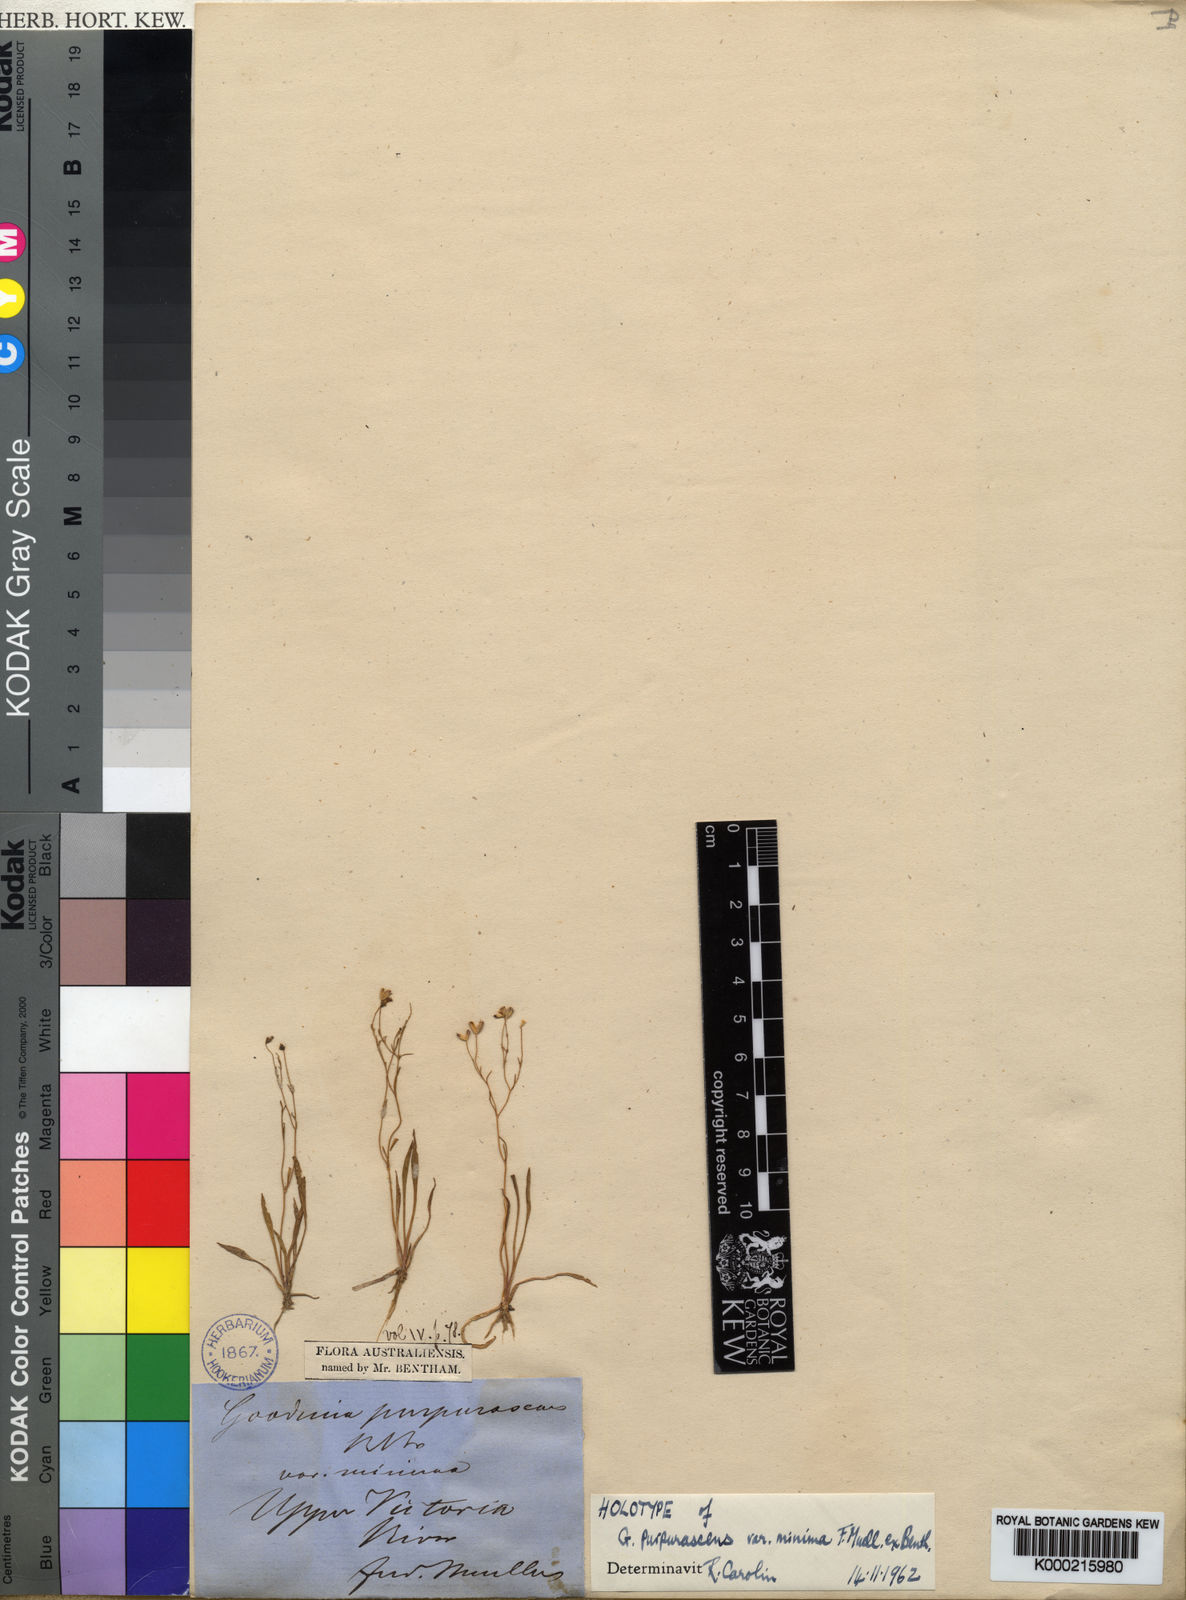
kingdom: Plantae
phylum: Tracheophyta
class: Magnoliopsida
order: Asterales
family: Goodeniaceae
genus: Goodenia
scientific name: Goodenia minutiflora
